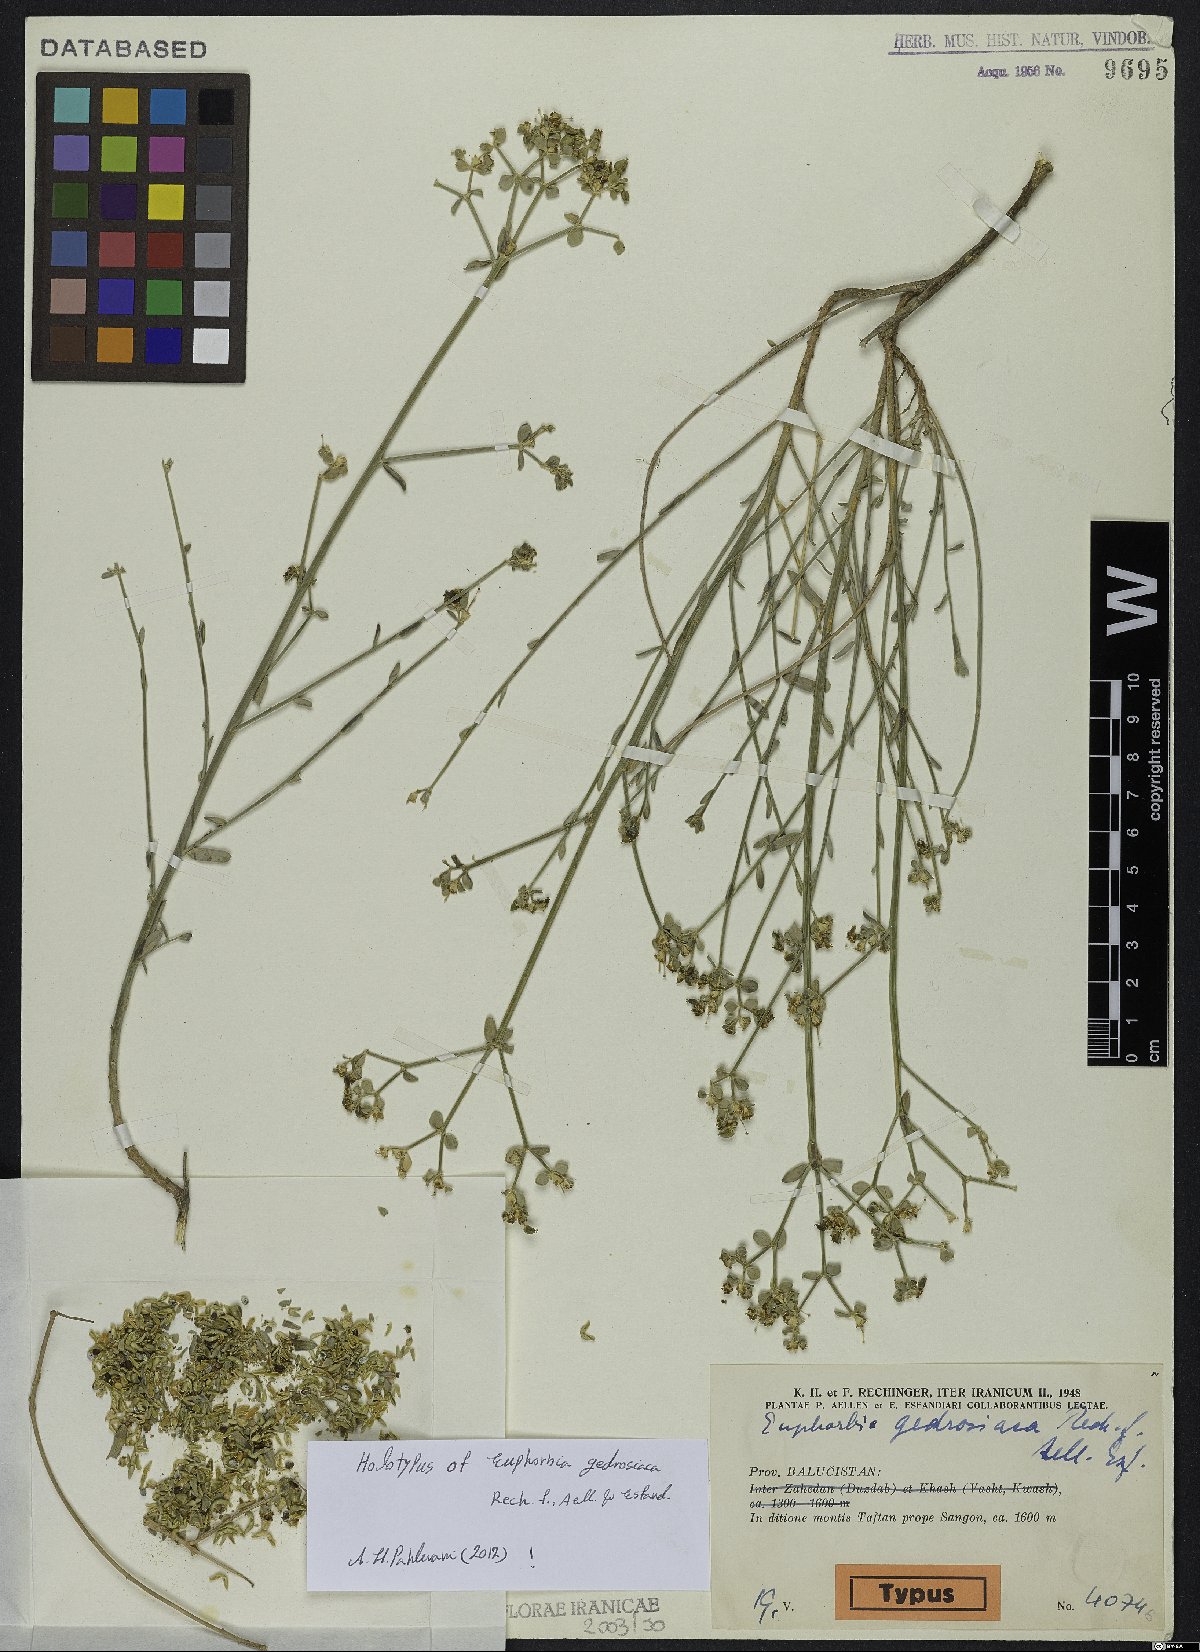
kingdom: Plantae
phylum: Tracheophyta
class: Magnoliopsida
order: Malpighiales
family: Euphorbiaceae
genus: Euphorbia
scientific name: Euphorbia gedrosiaca
